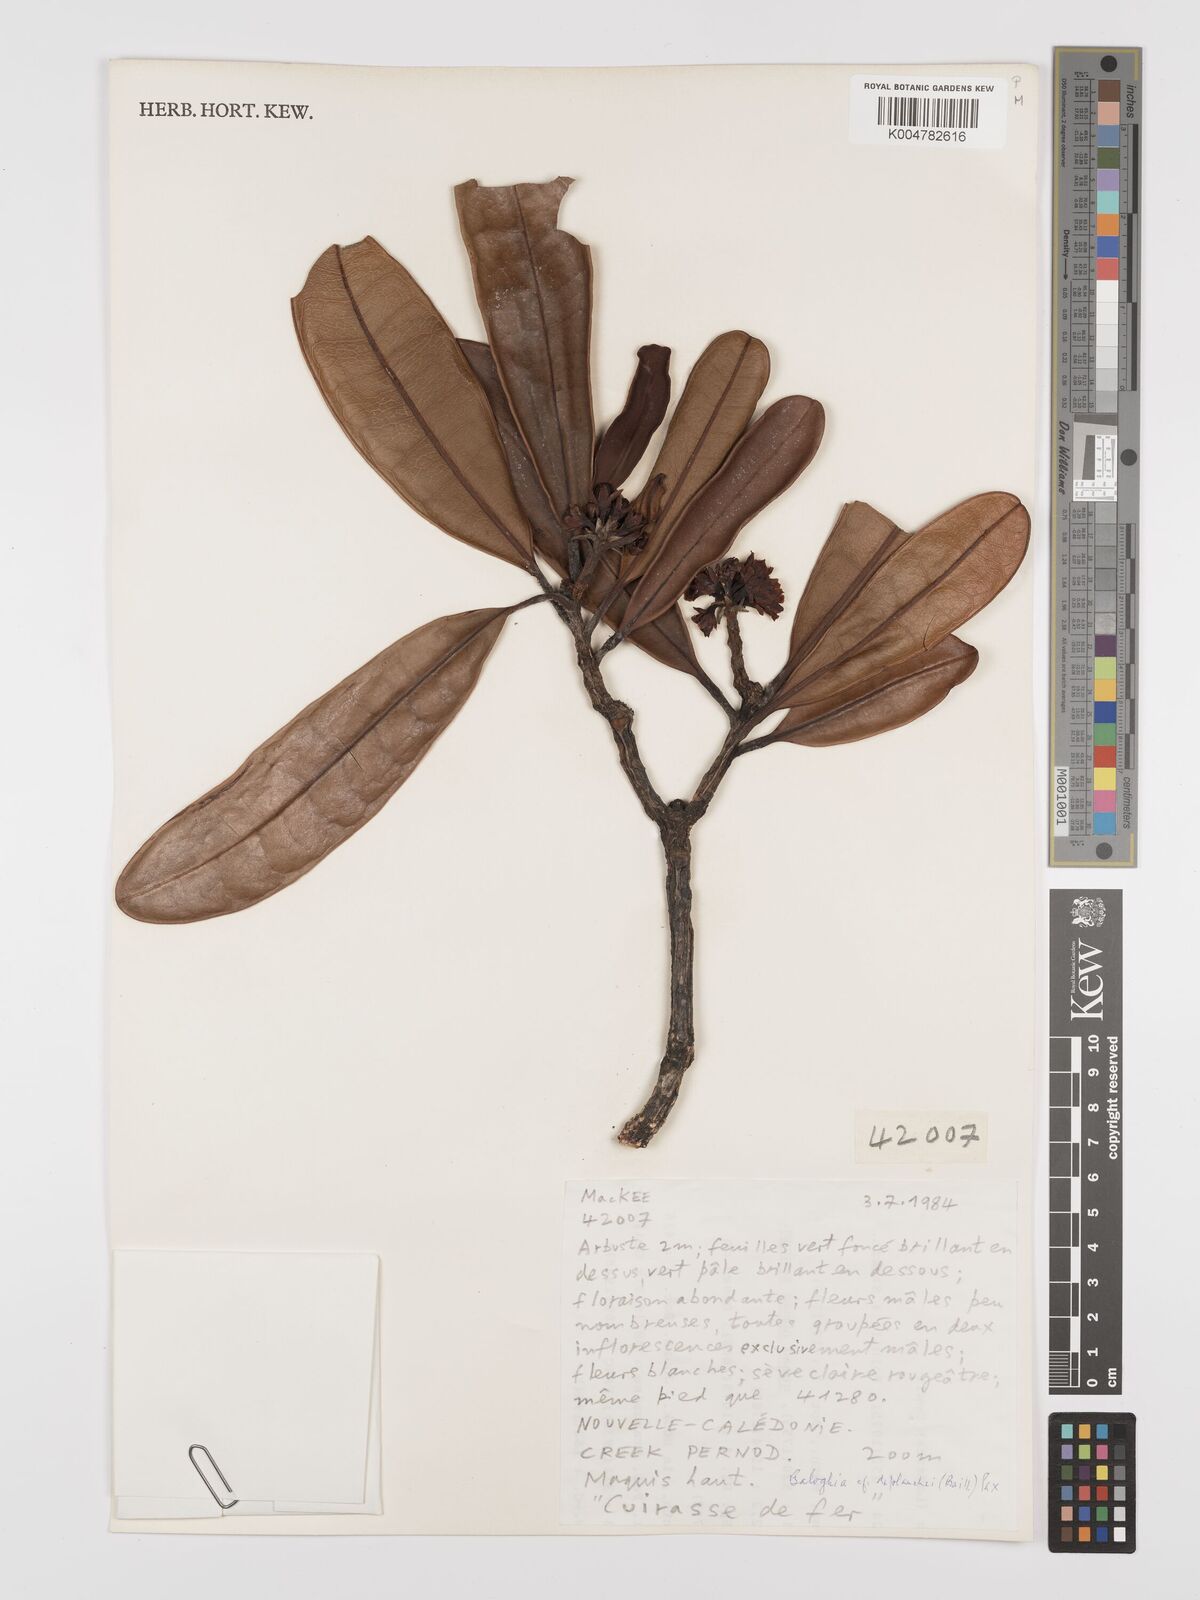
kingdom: Plantae
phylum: Tracheophyta
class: Magnoliopsida
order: Malpighiales
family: Euphorbiaceae
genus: Baloghia
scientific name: Baloghia deplanchei
